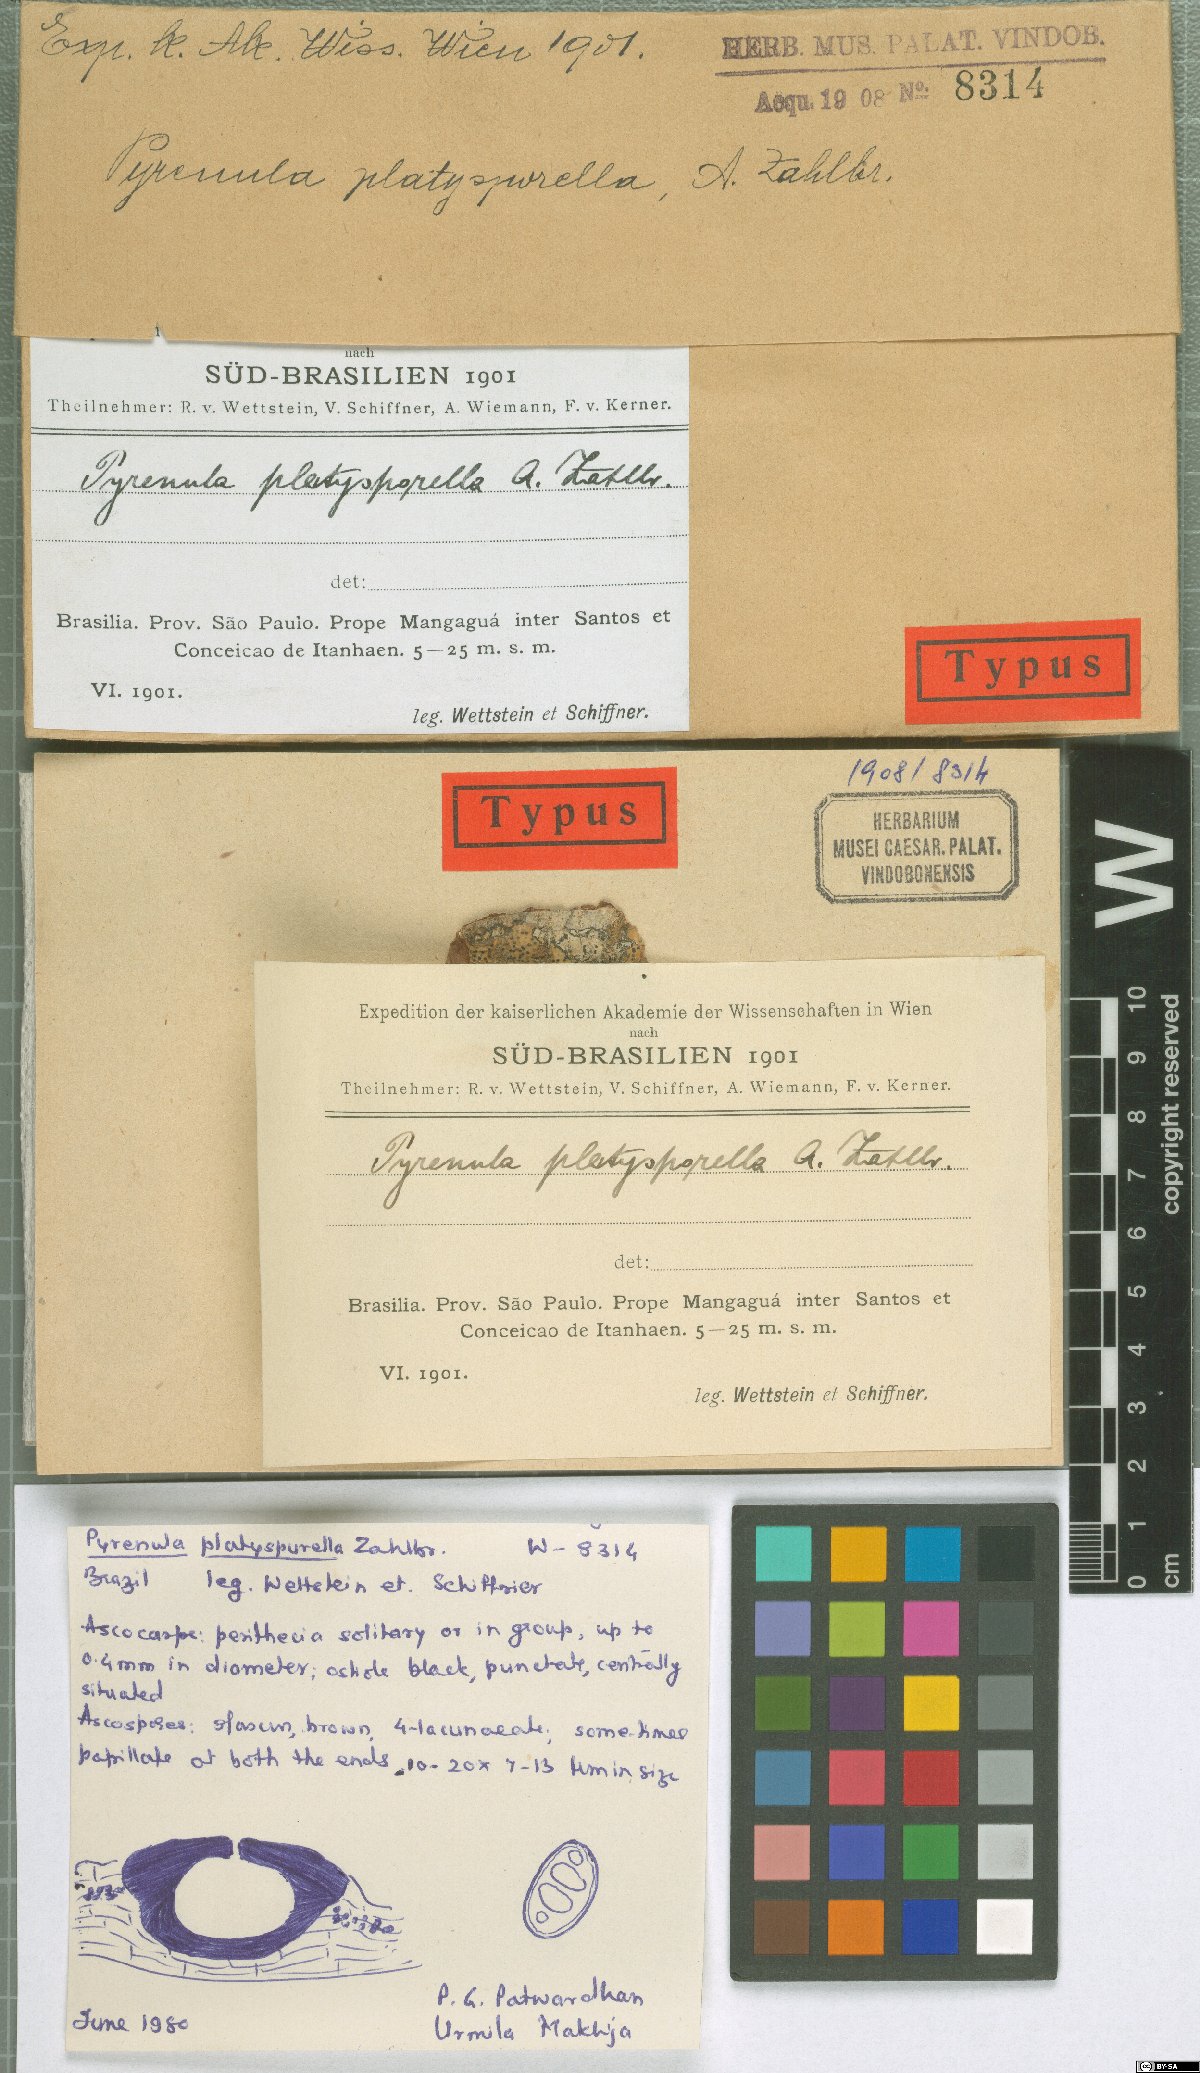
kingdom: Fungi
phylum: Ascomycota
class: Eurotiomycetes
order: Pyrenulales
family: Pyrenulaceae
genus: Pyrenula
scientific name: Pyrenula
